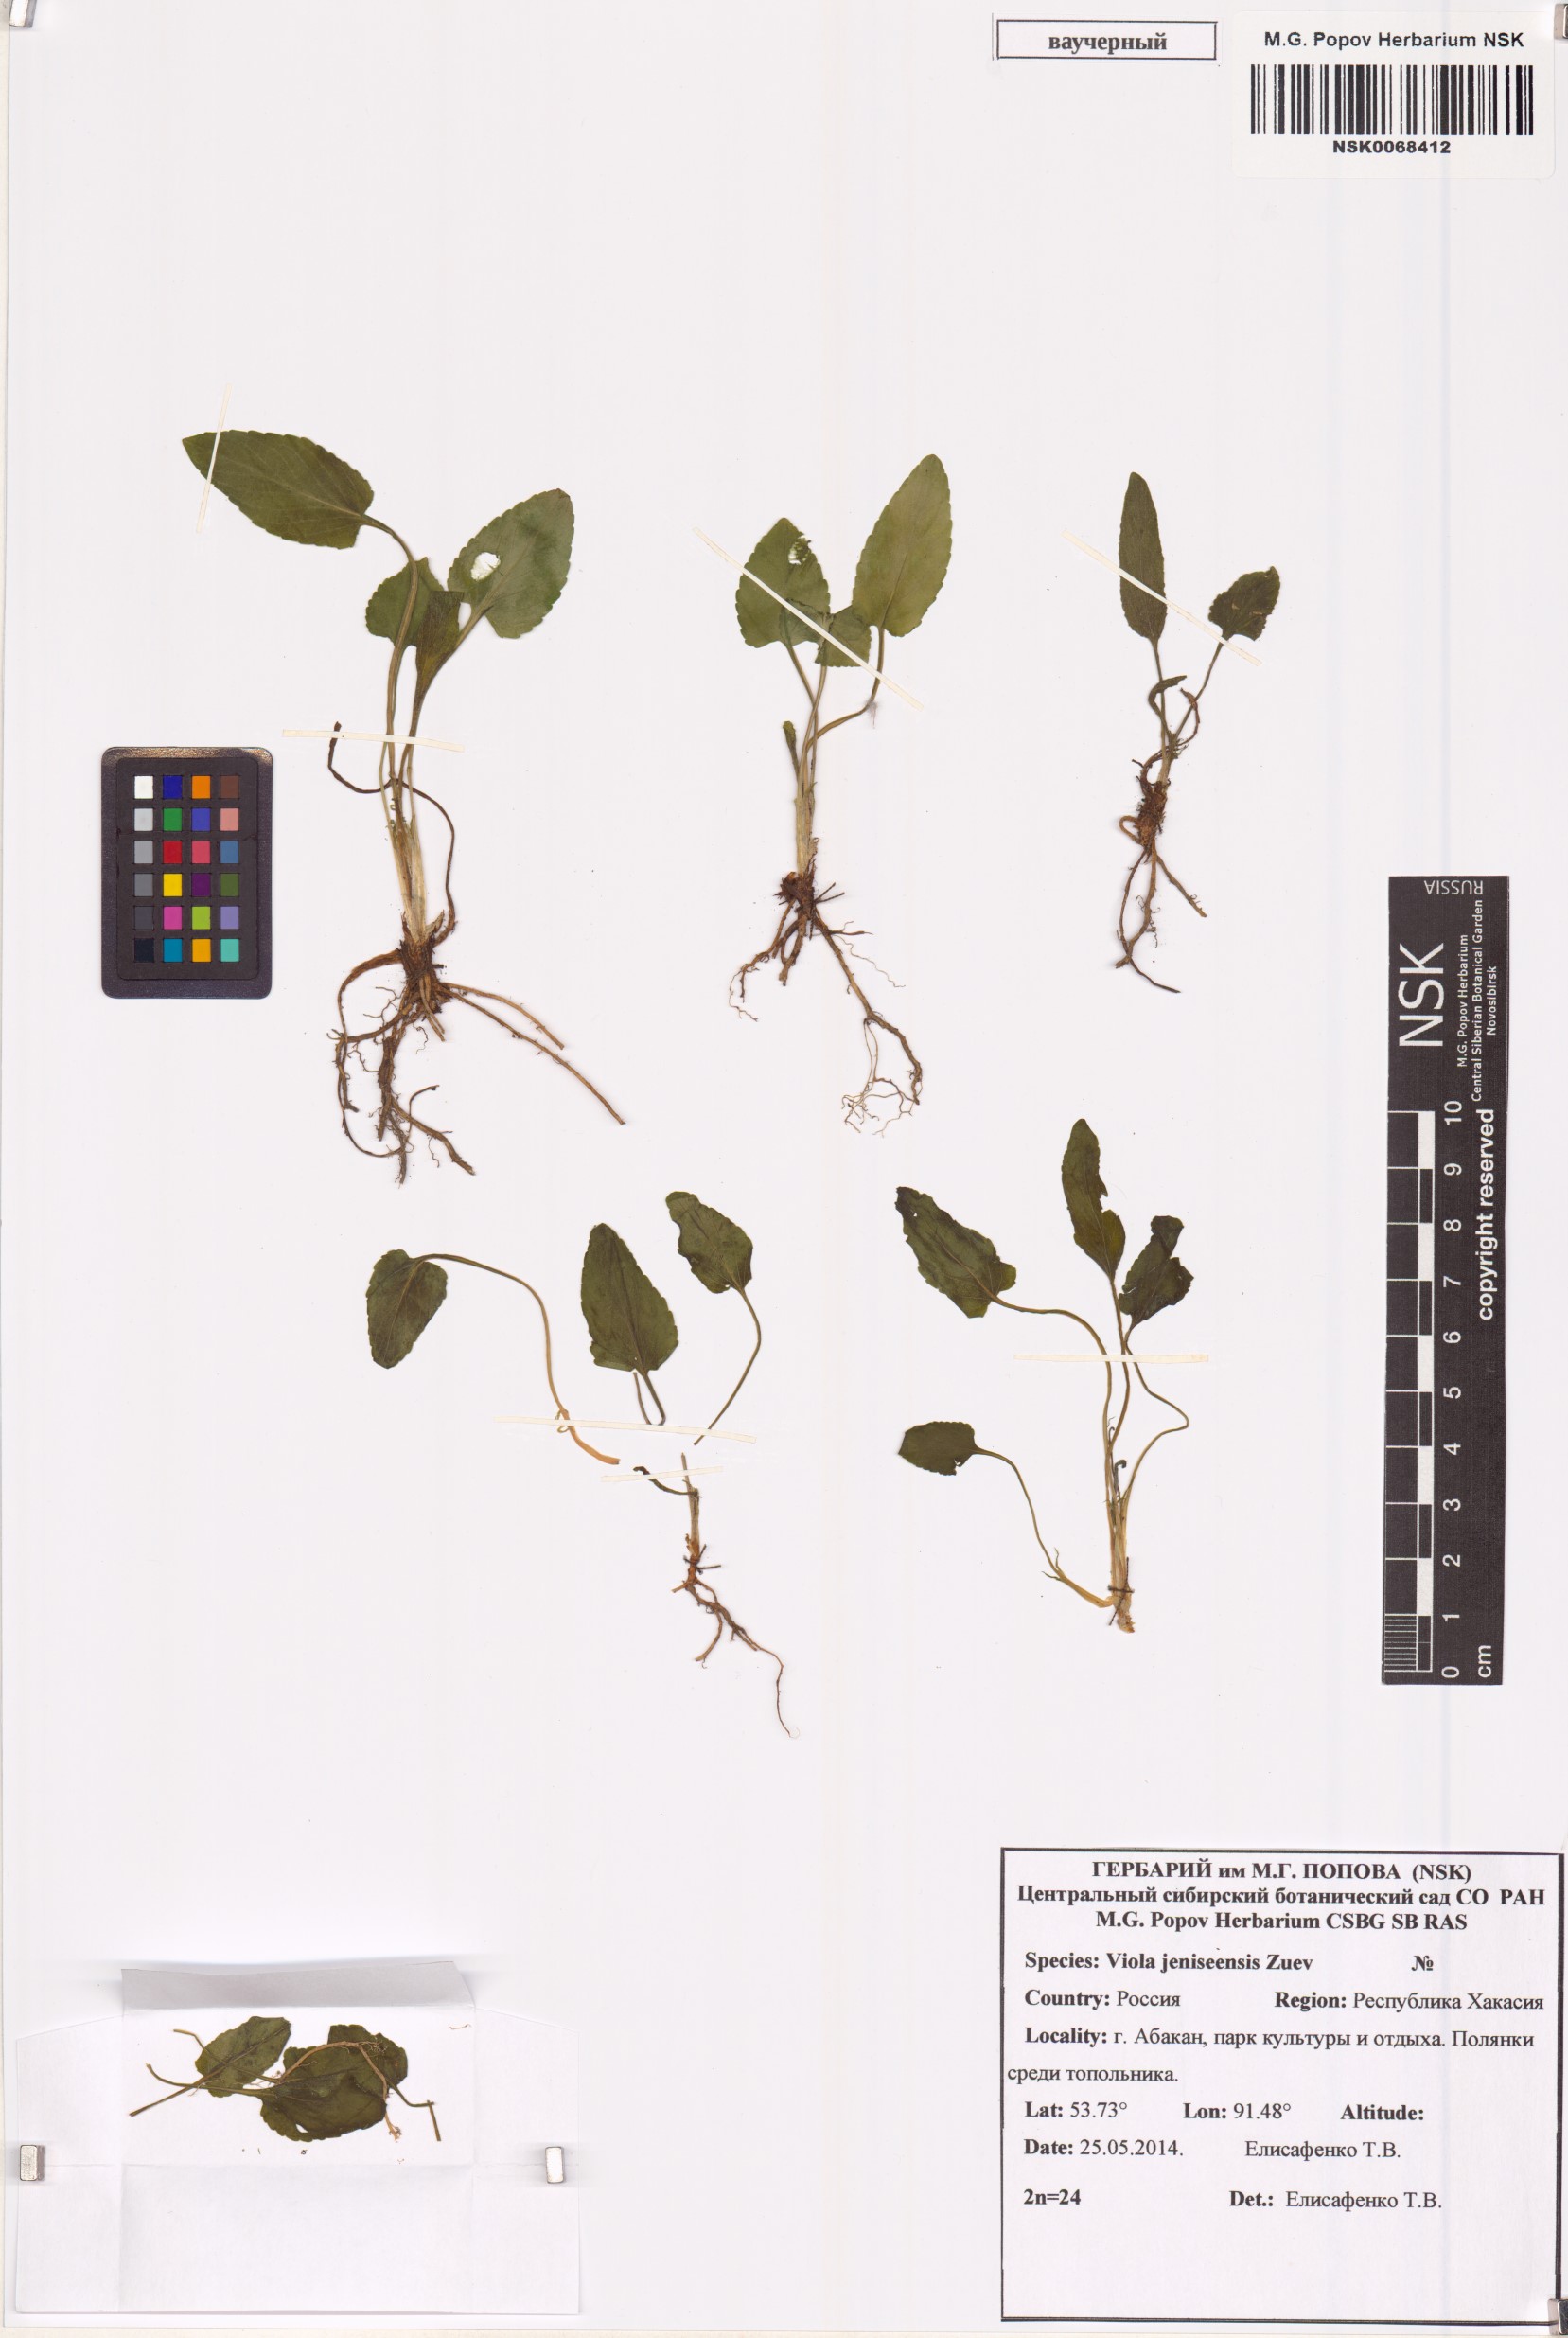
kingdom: Plantae
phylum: Tracheophyta
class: Magnoliopsida
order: Malpighiales
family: Violaceae
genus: Viola
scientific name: Viola prionantha
